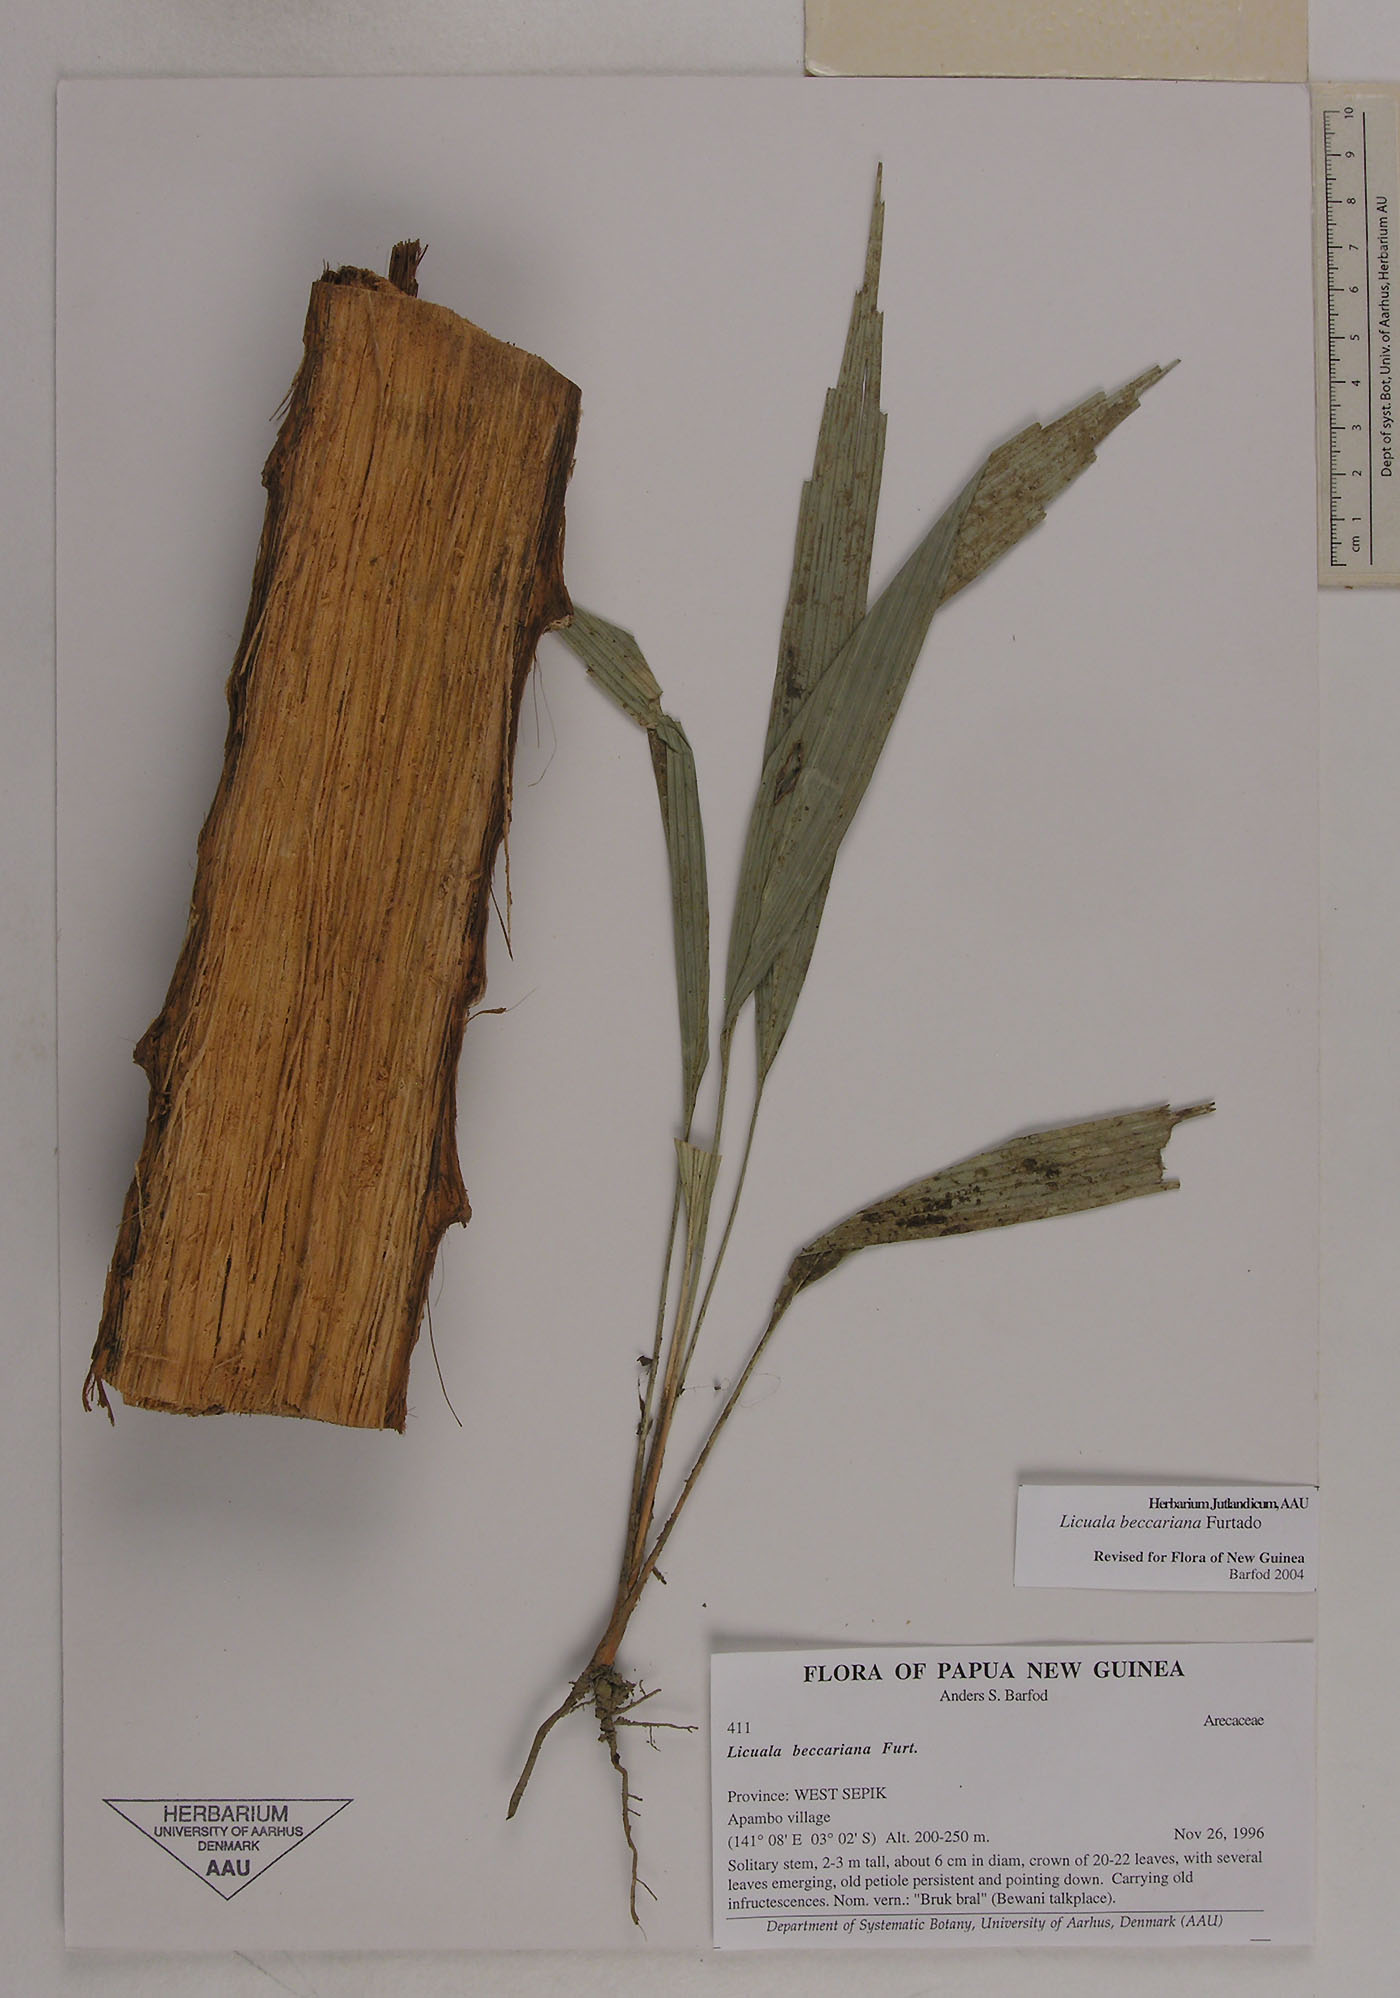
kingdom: Plantae
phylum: Tracheophyta
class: Liliopsida
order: Arecales
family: Arecaceae
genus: Licuala
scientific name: Licuala beccariana
